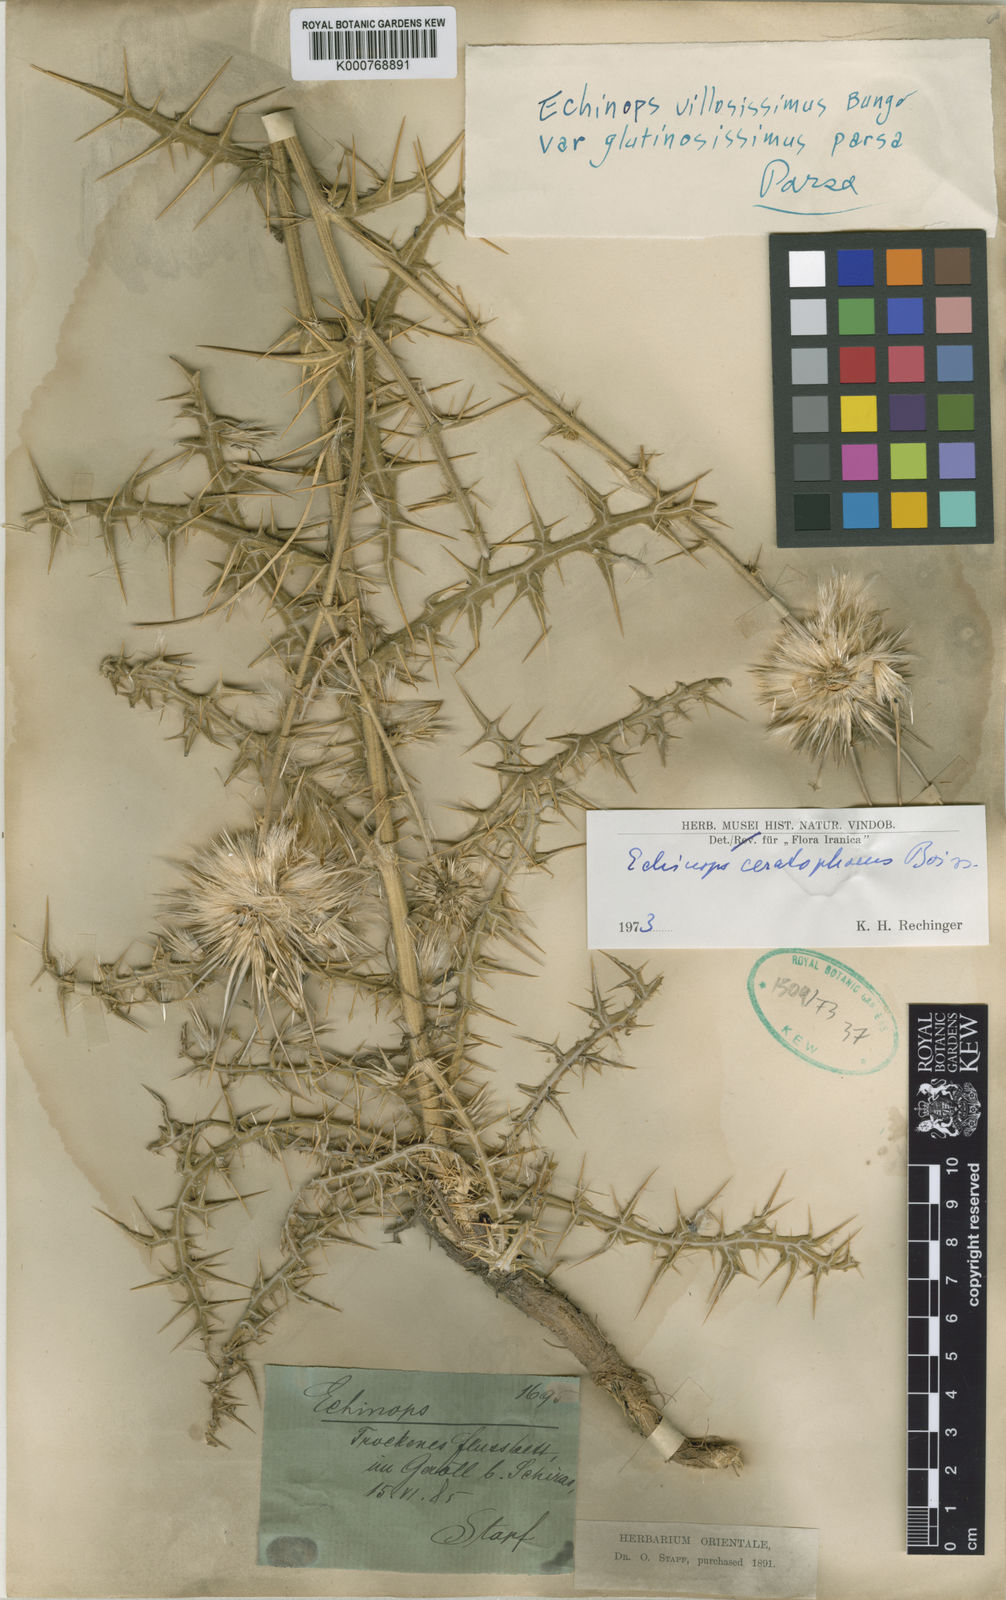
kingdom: Plantae
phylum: Tracheophyta
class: Magnoliopsida
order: Asterales
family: Asteraceae
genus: Echinops
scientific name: Echinops ceratophorus
